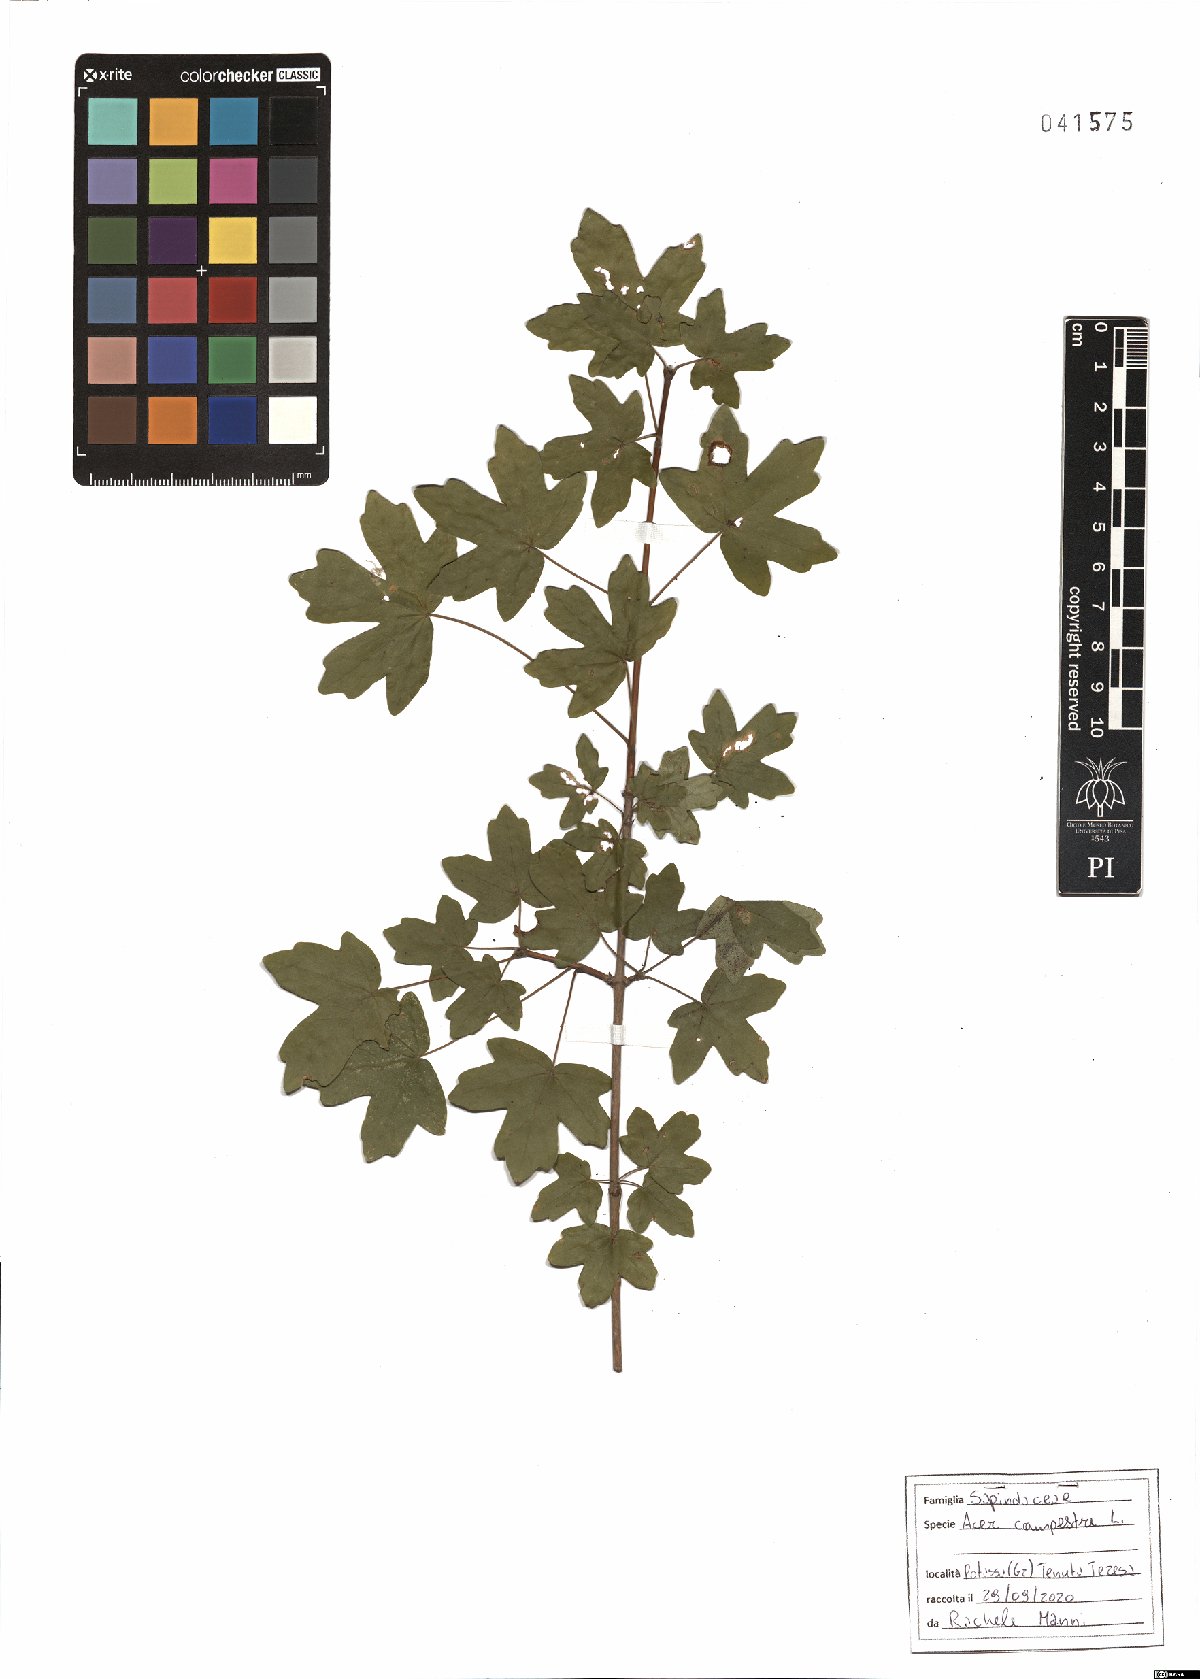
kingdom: Plantae
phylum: Tracheophyta
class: Magnoliopsida
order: Sapindales
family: Sapindaceae
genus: Acer
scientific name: Acer campestre
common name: Field maple
